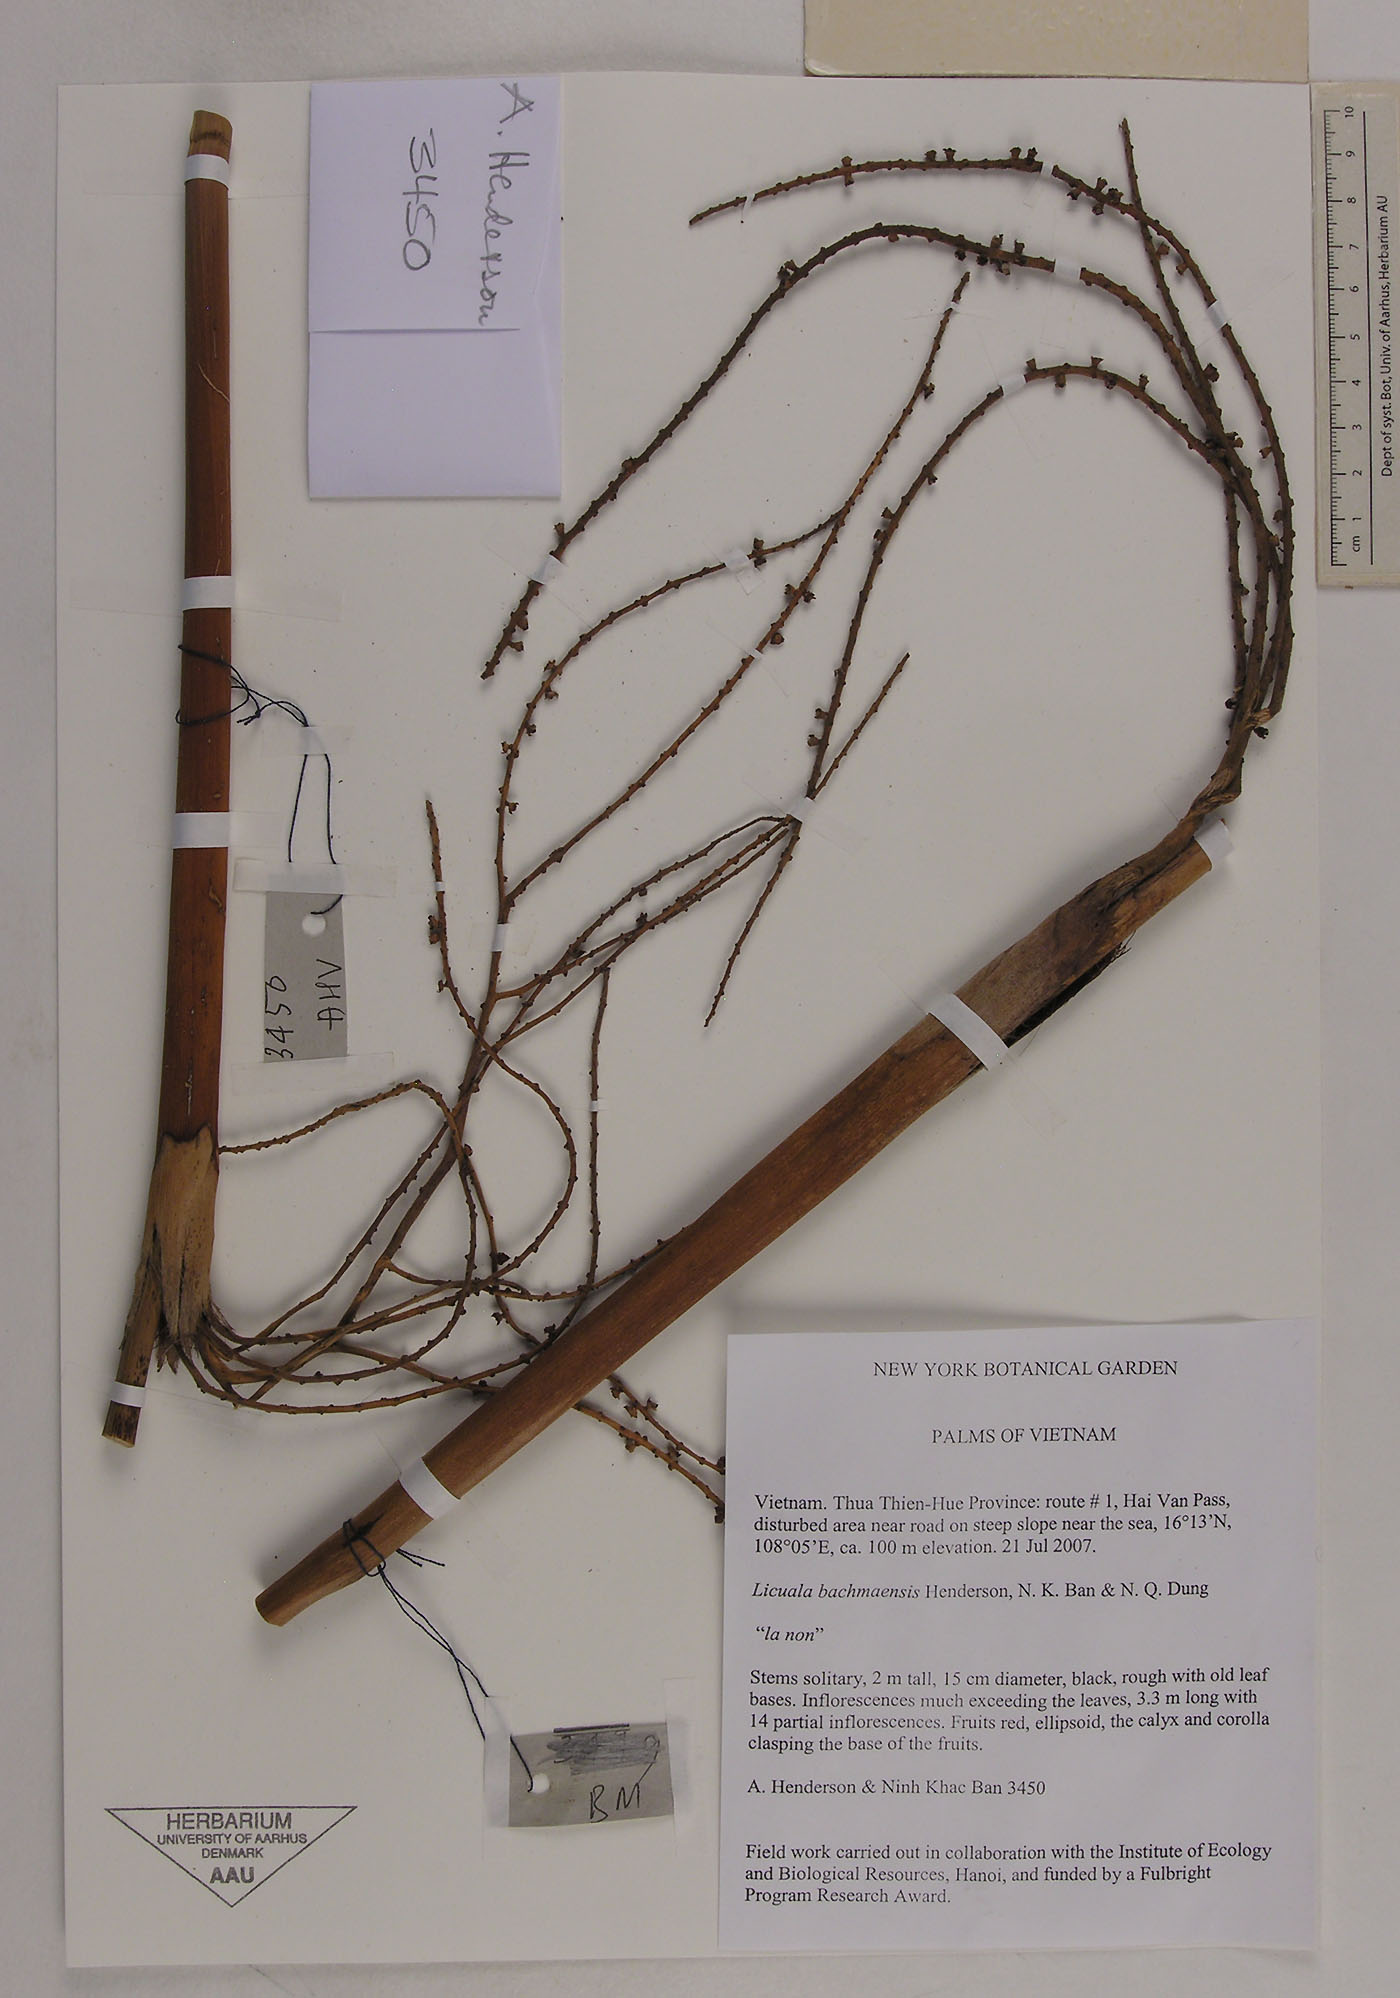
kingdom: Plantae
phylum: Tracheophyta
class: Liliopsida
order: Arecales
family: Arecaceae
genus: Licuala
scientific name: Licuala bachmaensis
